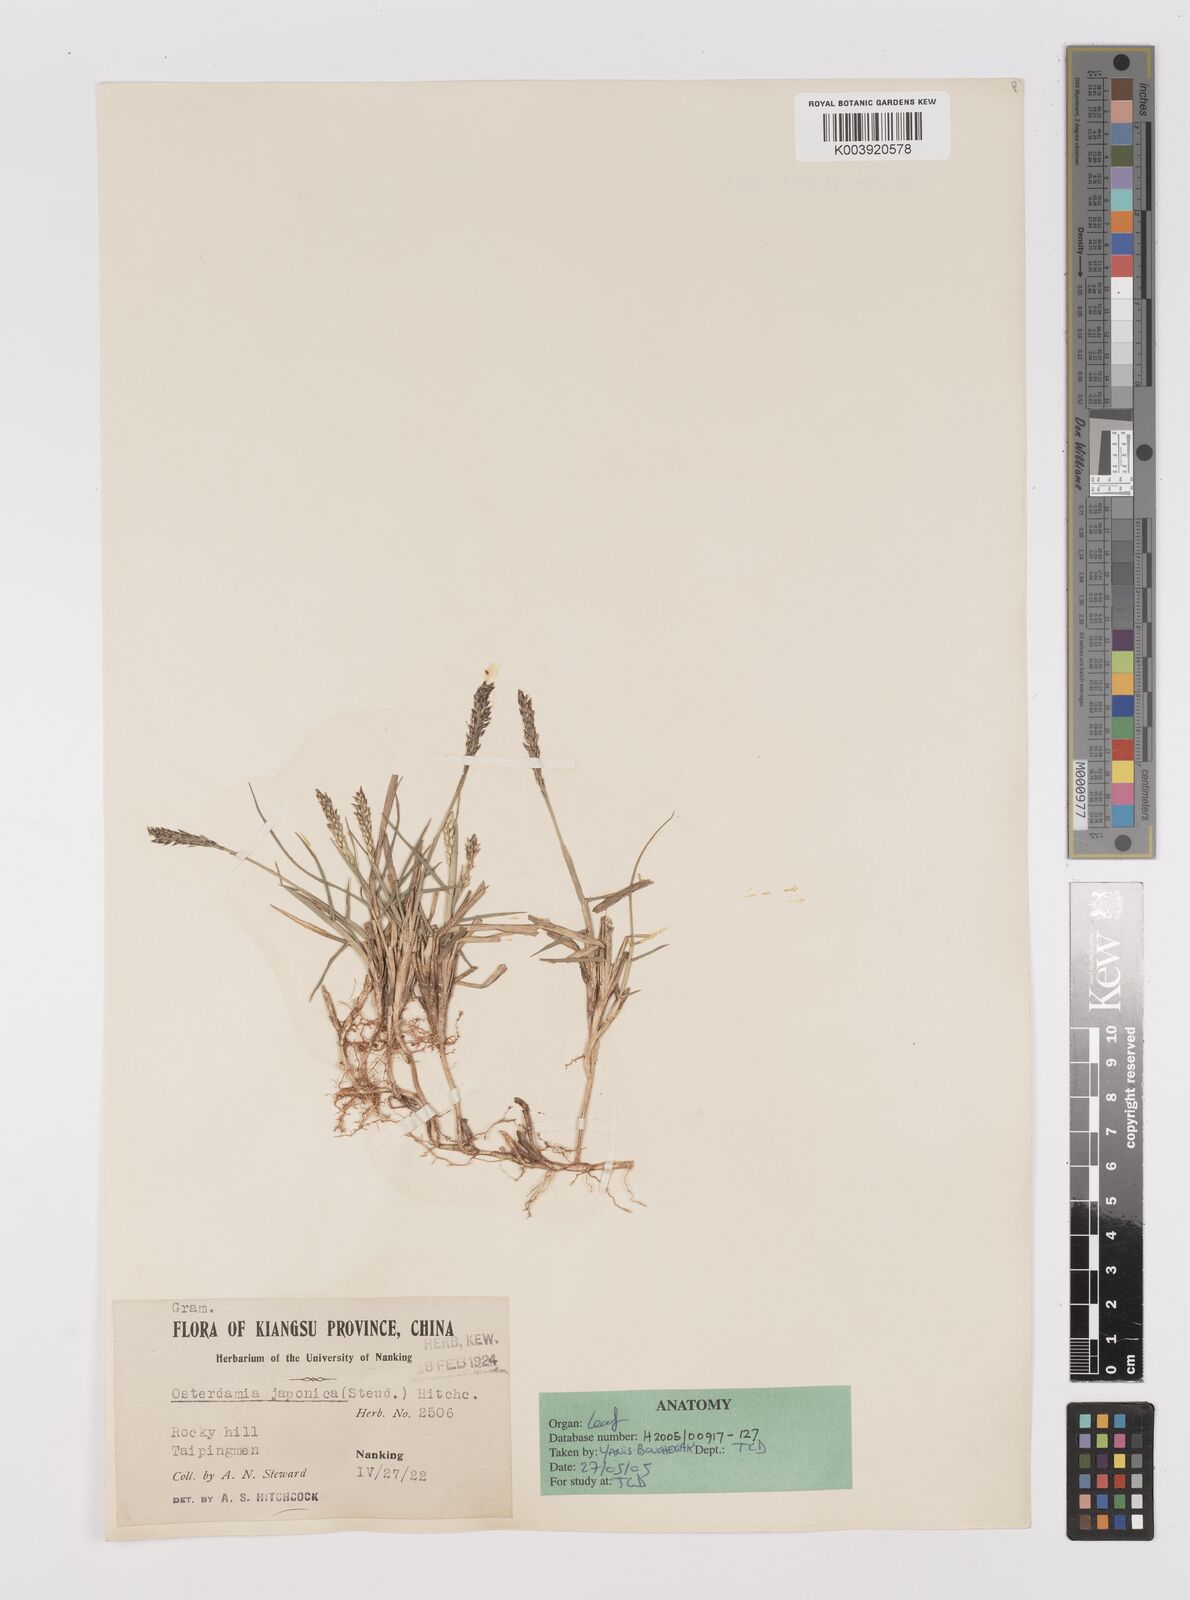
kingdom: Plantae
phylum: Tracheophyta
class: Liliopsida
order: Poales
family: Poaceae
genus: Zoysia
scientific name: Zoysia japonica
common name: Korean lawngrass
